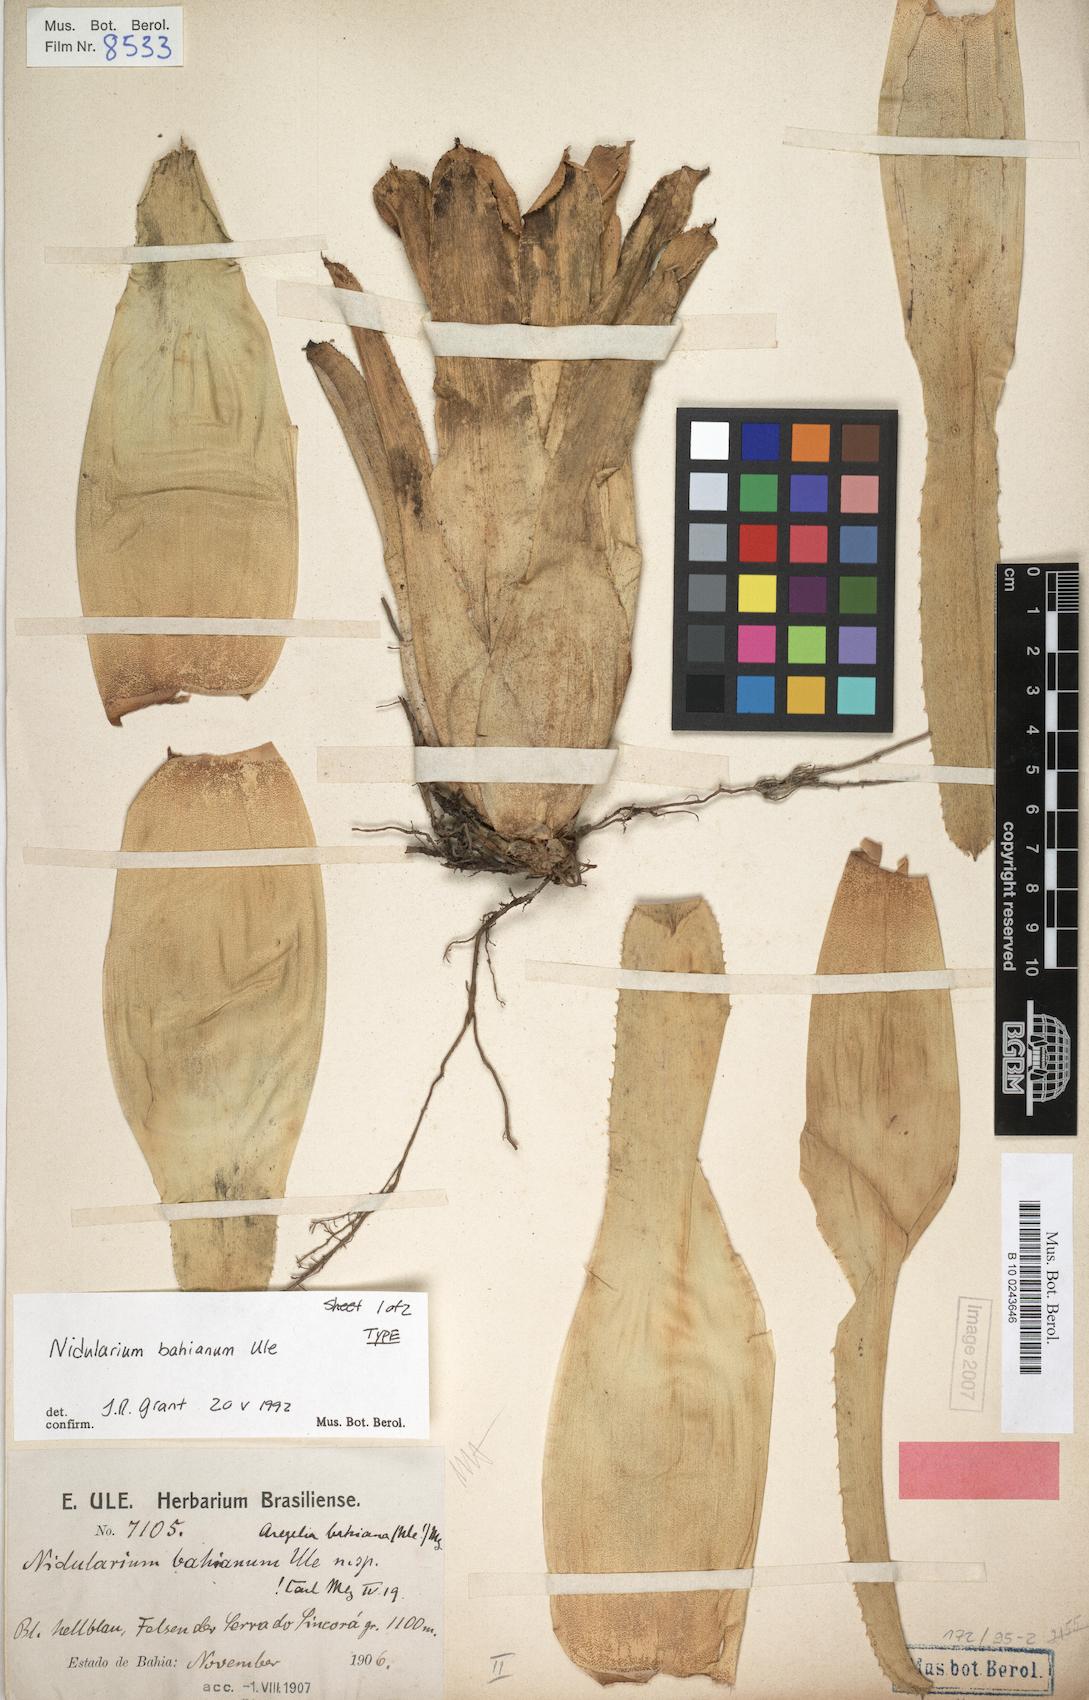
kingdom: Plantae
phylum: Tracheophyta
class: Liliopsida
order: Poales
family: Bromeliaceae
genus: Neoregelia
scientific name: Neoregelia bahiana
